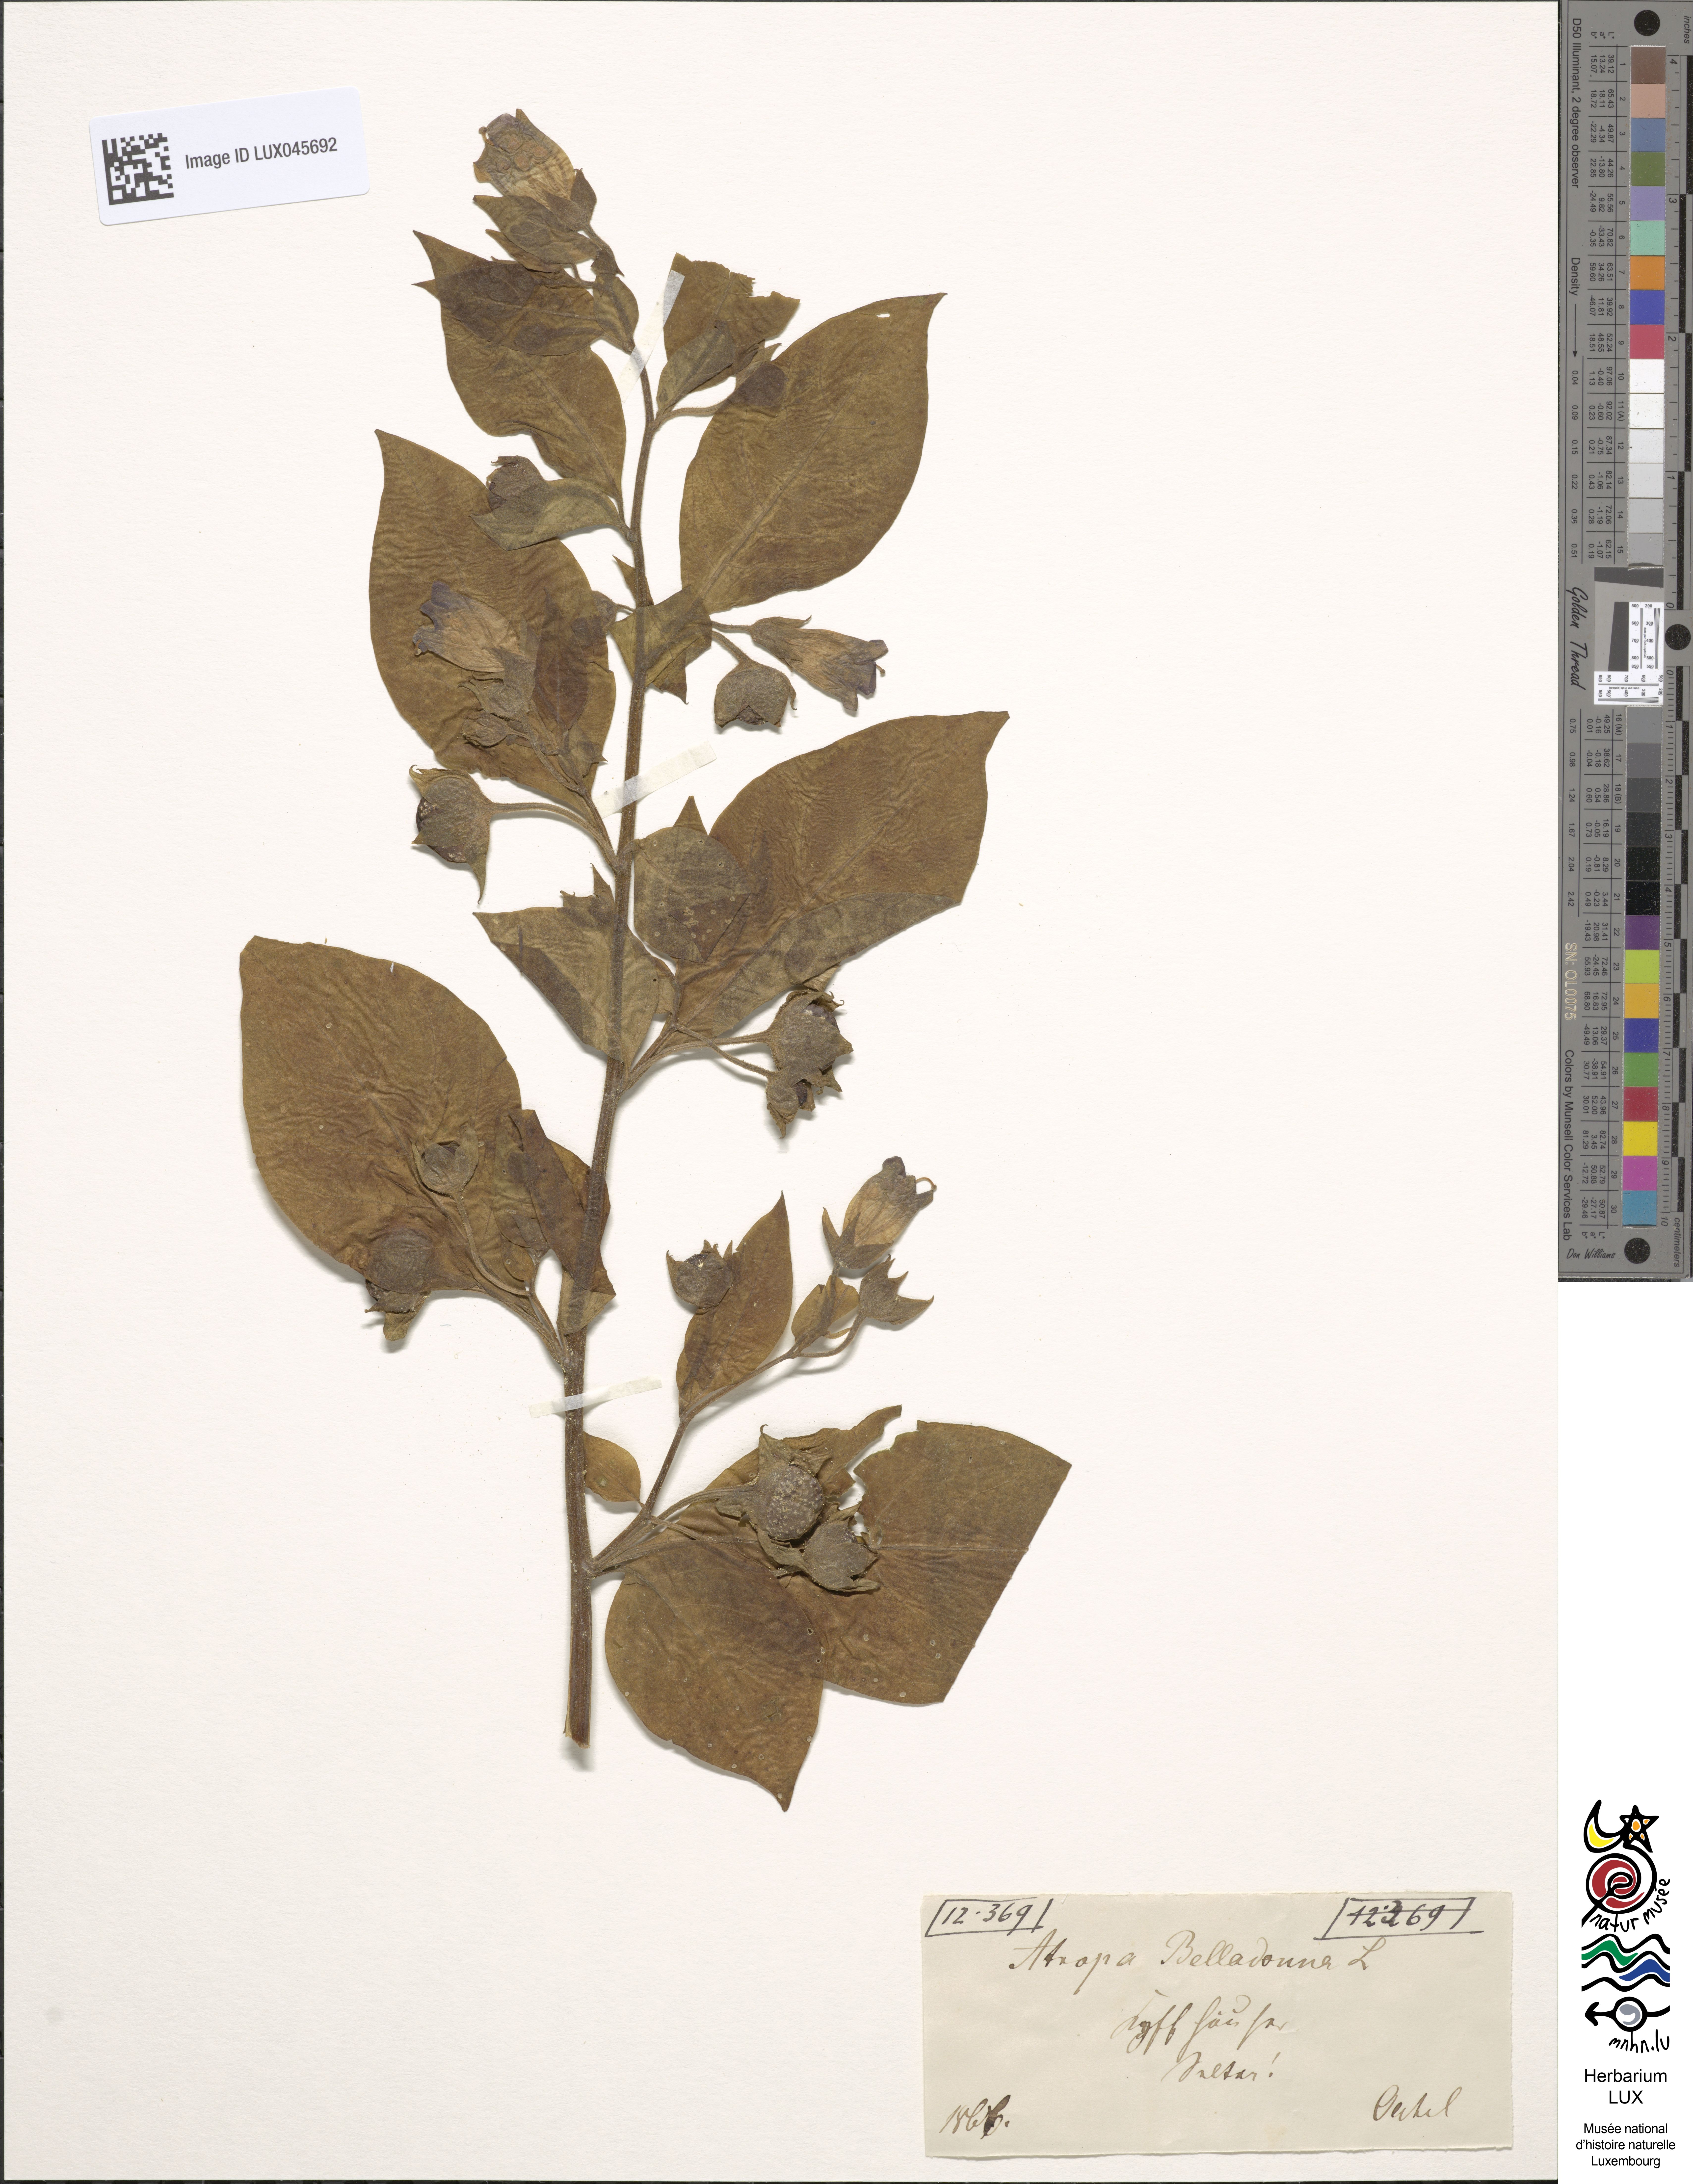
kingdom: Plantae
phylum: Tracheophyta
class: Magnoliopsida
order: Solanales
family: Solanaceae
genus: Atropa
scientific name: Atropa belladonna
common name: Deadly nightshade
